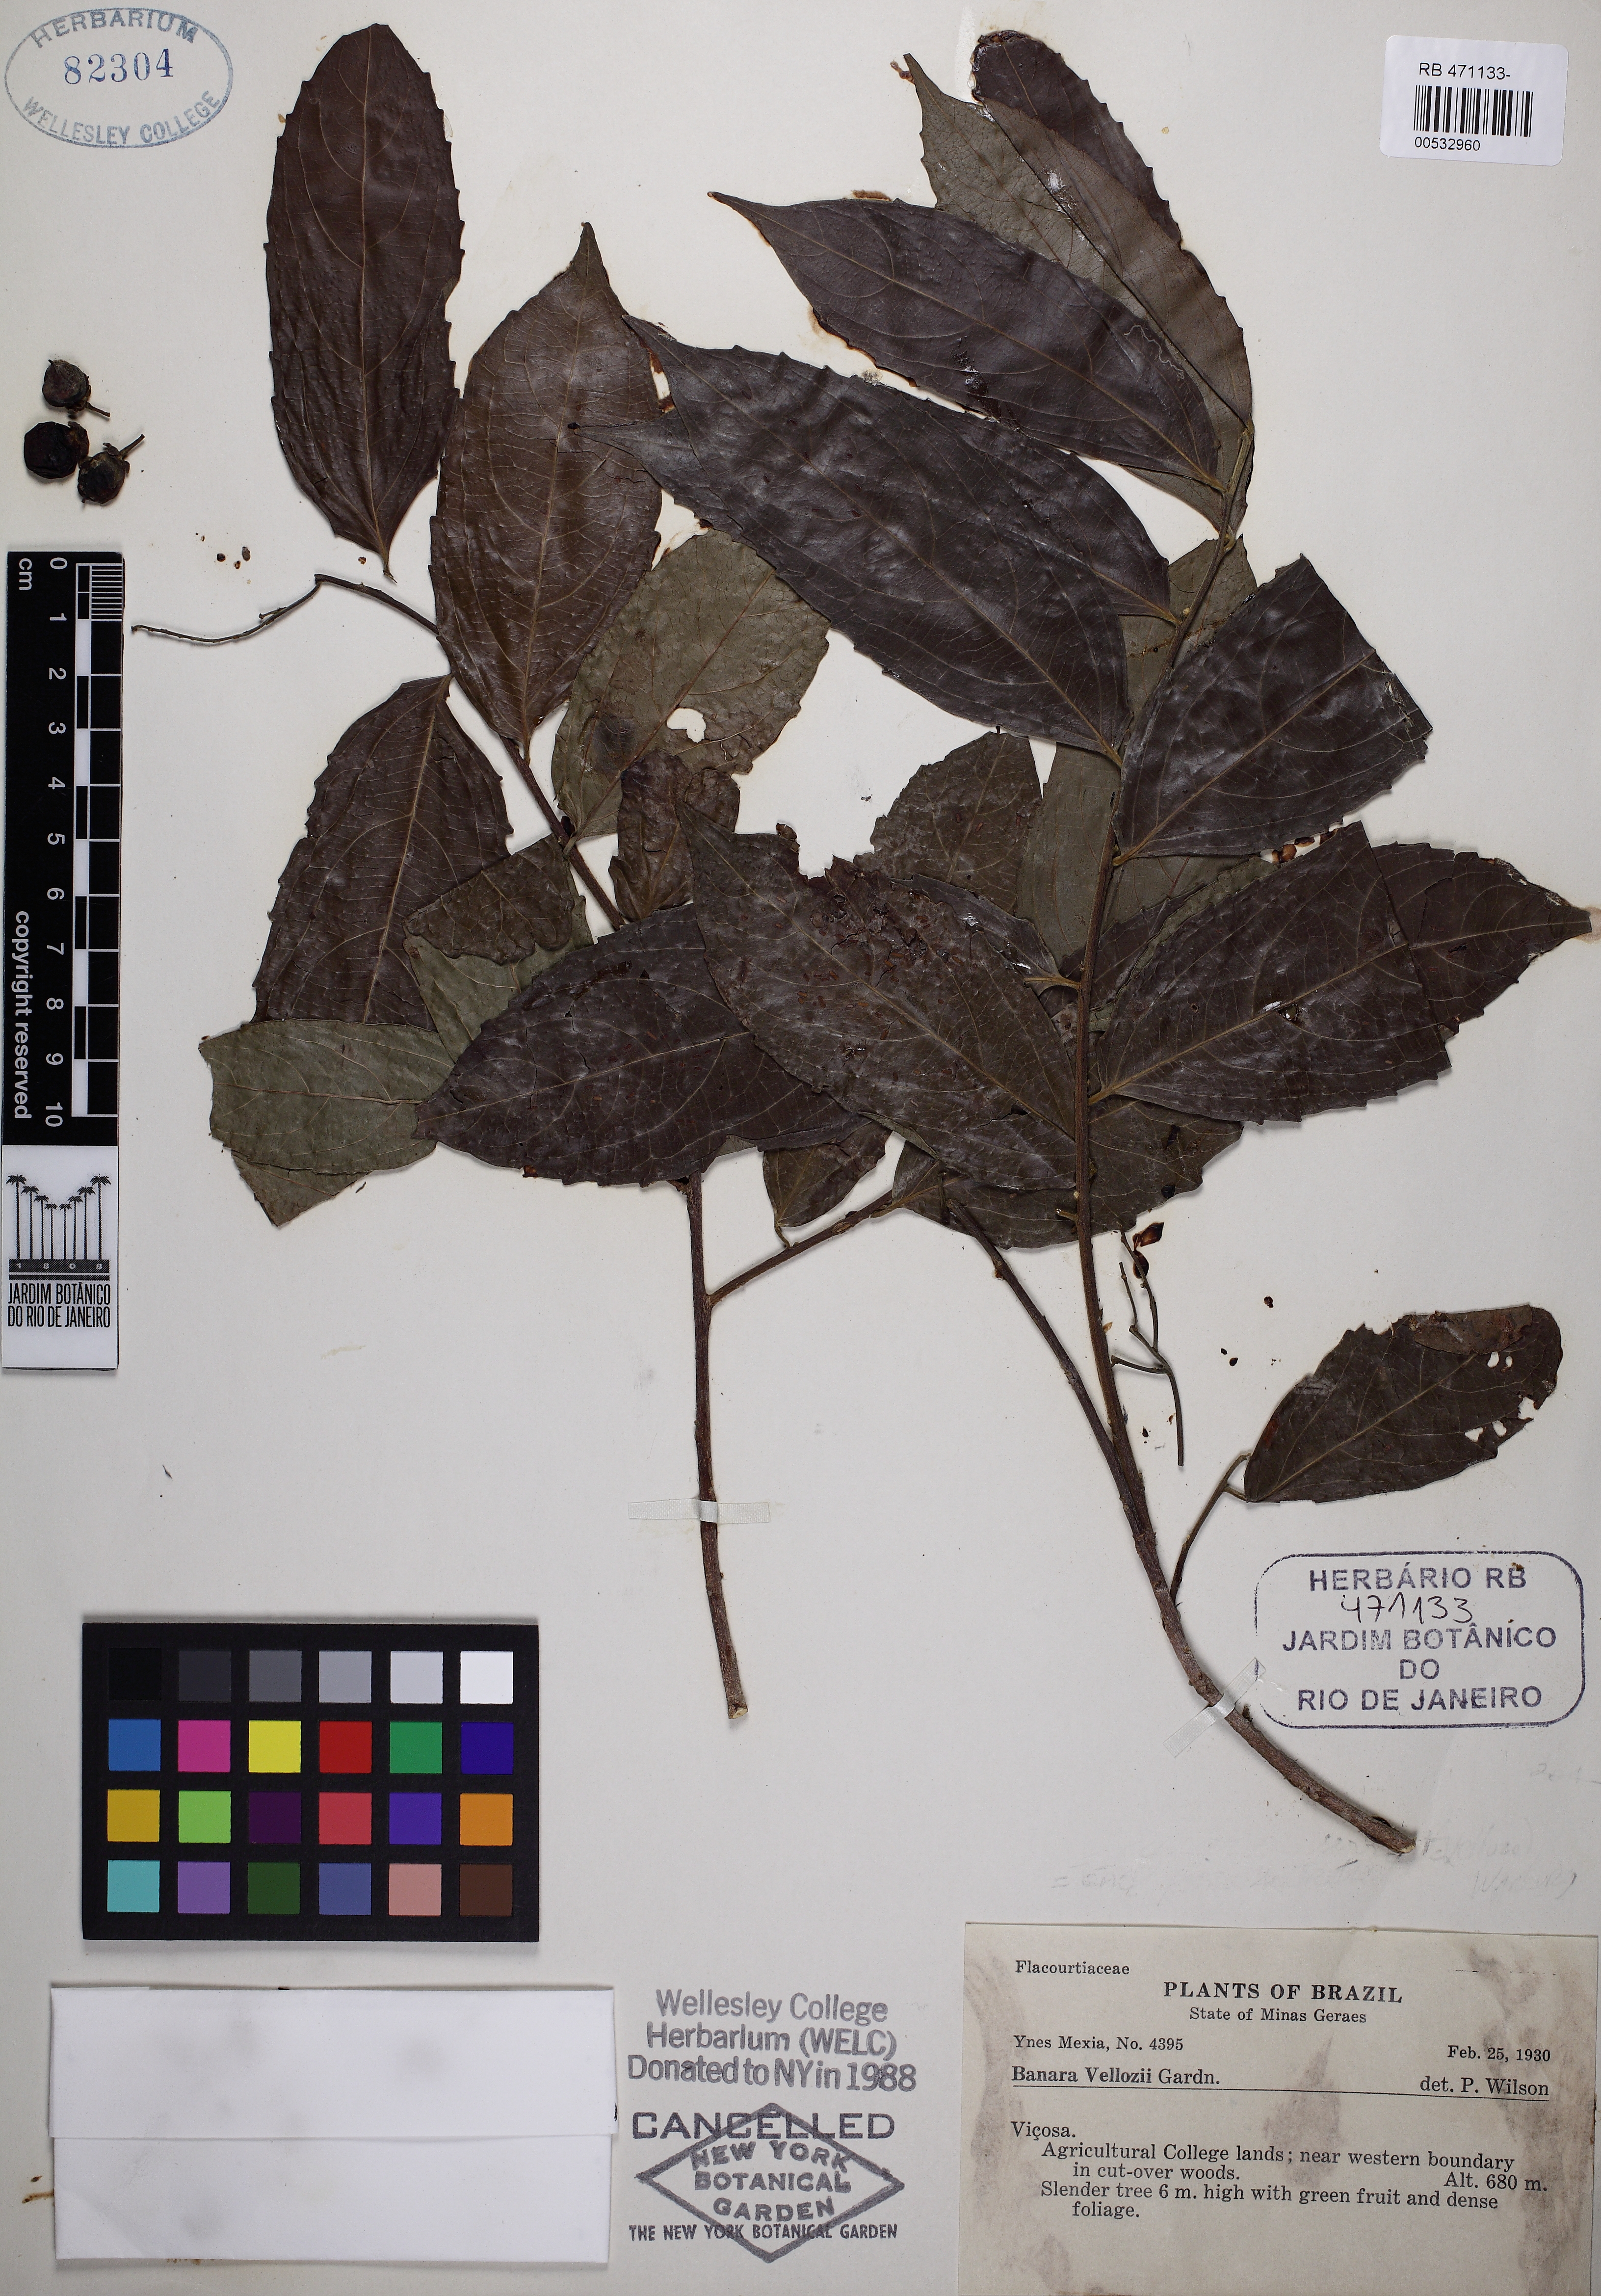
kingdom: Plantae
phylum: Tracheophyta
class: Magnoliopsida
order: Malpighiales
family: Salicaceae
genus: Banara
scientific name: Banara serrata
